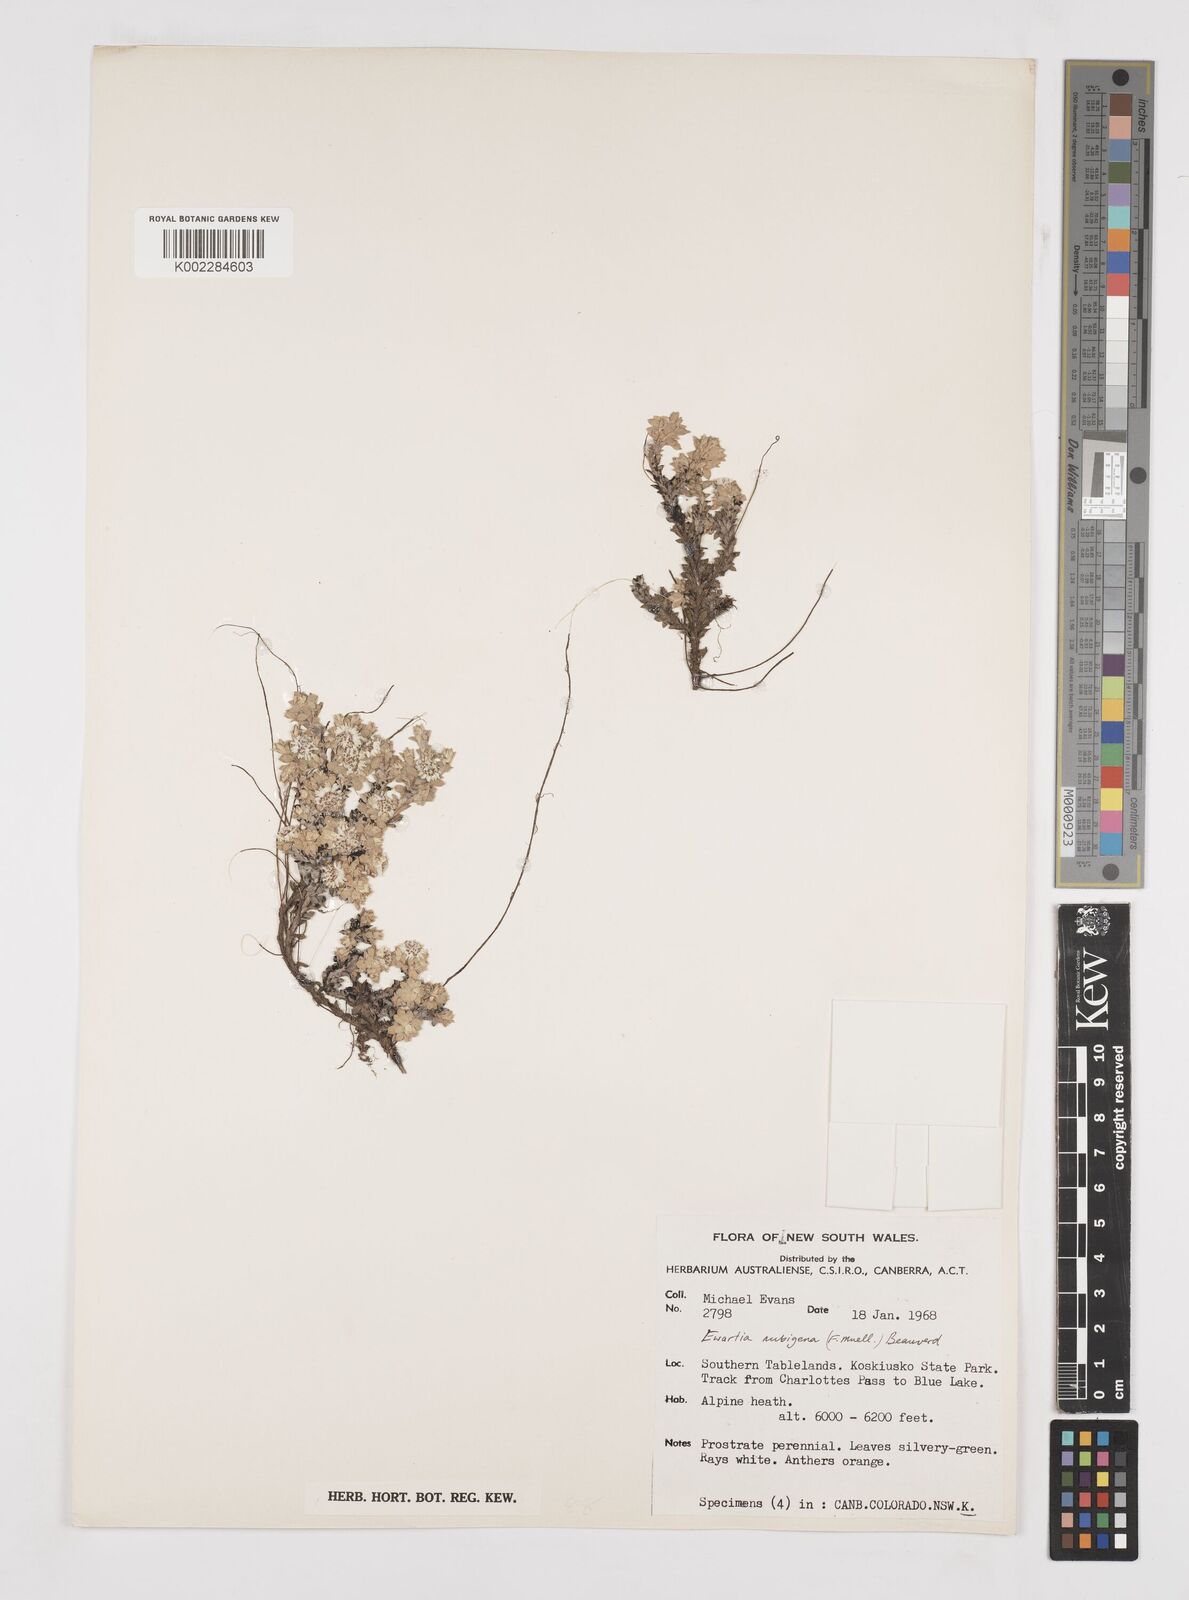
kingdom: Plantae
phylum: Tracheophyta
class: Magnoliopsida
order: Asterales
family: Asteraceae
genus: Ewartia
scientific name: Ewartia nubigena
